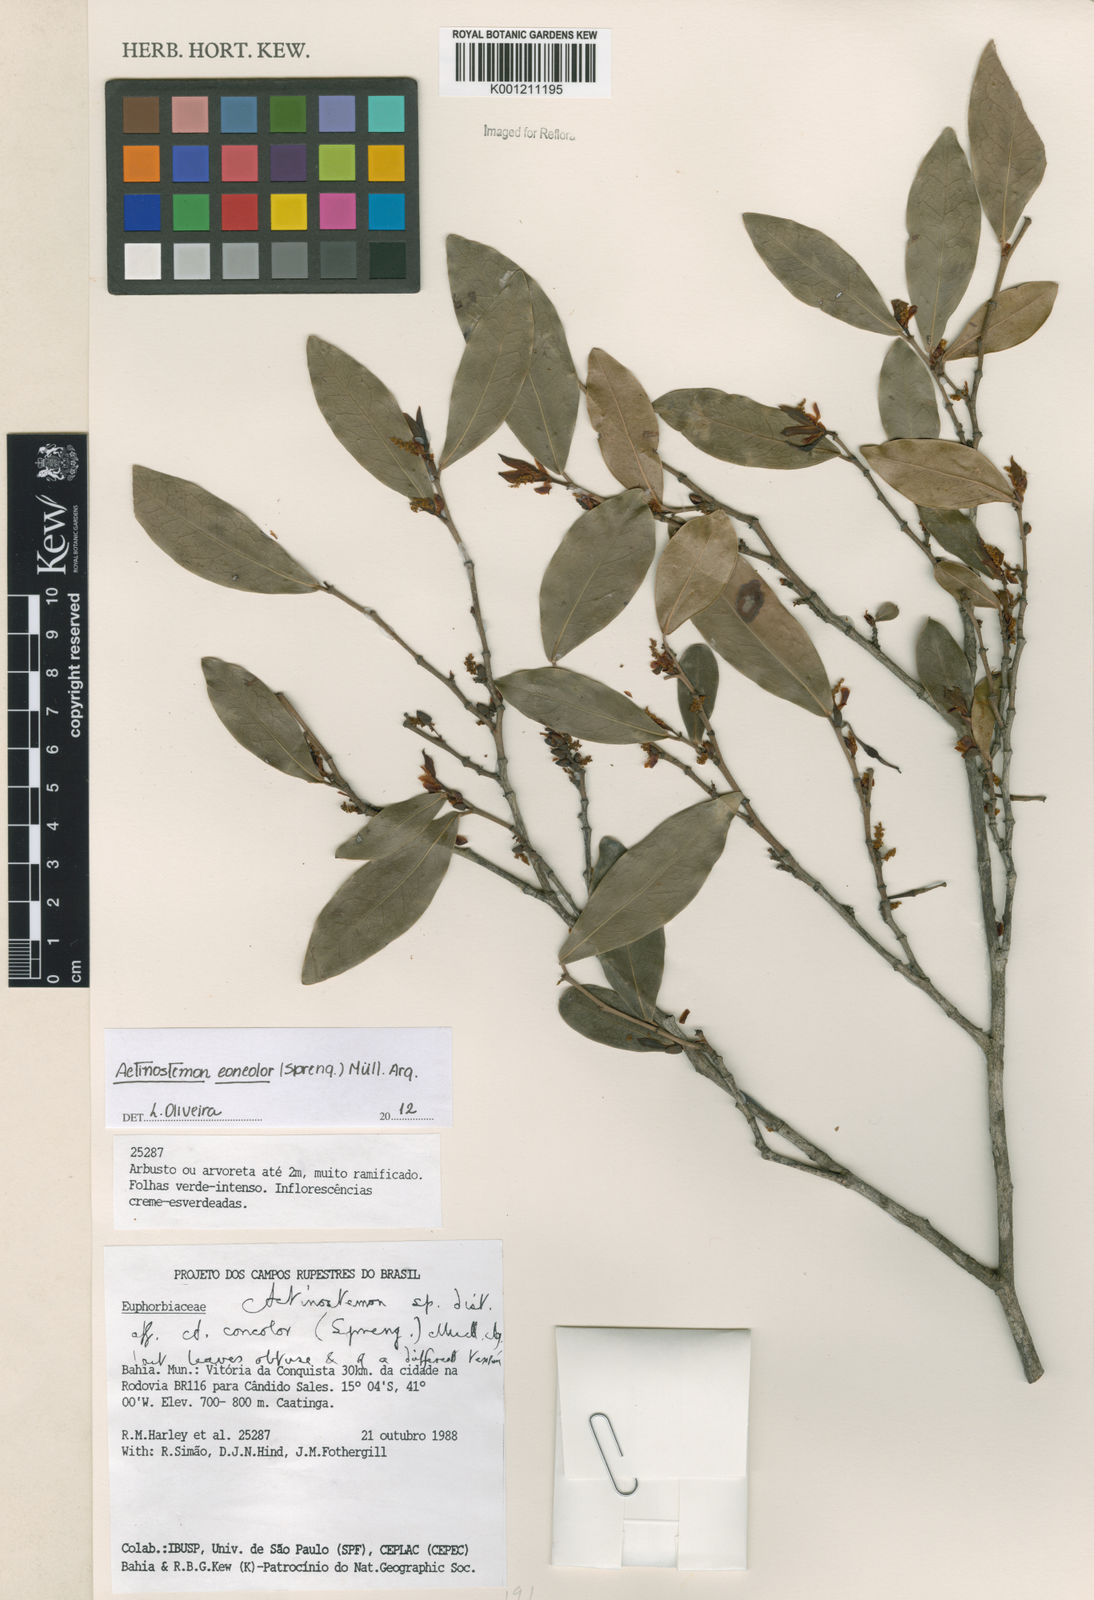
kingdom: Plantae
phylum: Tracheophyta
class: Magnoliopsida
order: Malpighiales
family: Euphorbiaceae
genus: Actinostemon
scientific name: Actinostemon
